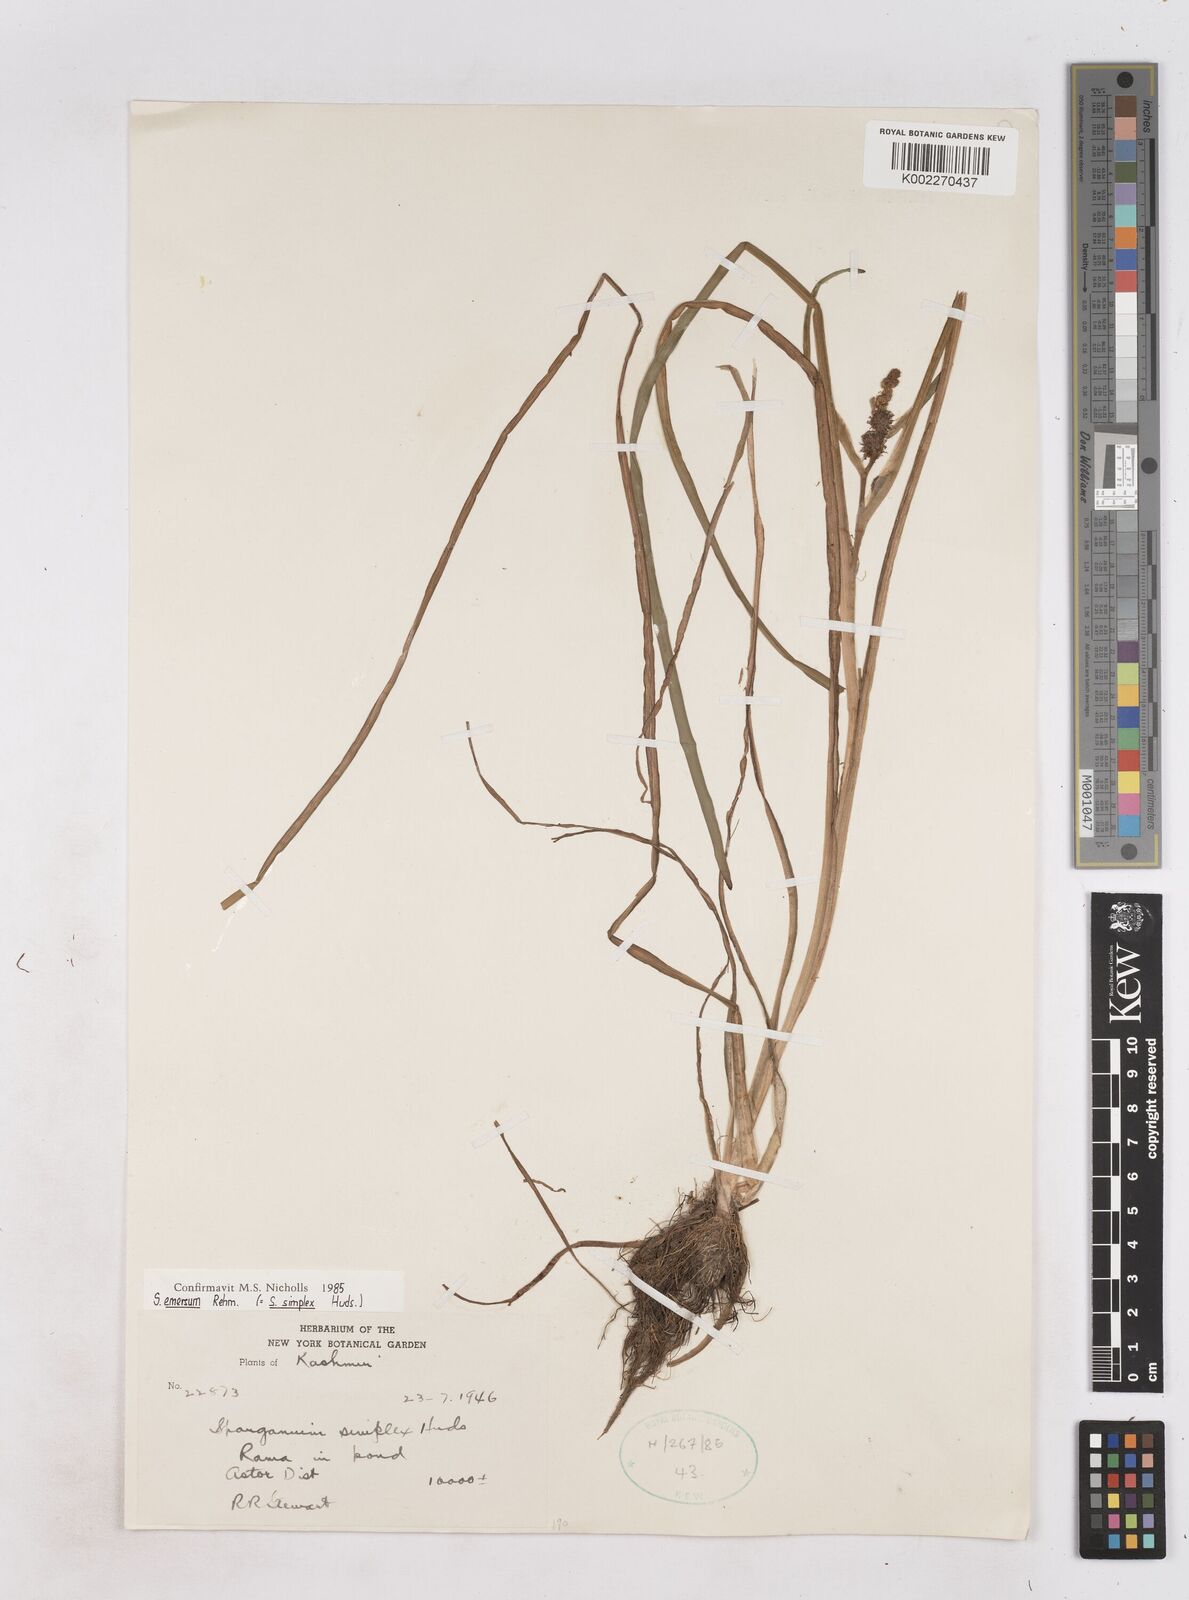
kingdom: Plantae
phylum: Tracheophyta
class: Liliopsida
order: Poales
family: Typhaceae
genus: Sparganium
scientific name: Sparganium emersum
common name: Unbranched bur-reed
